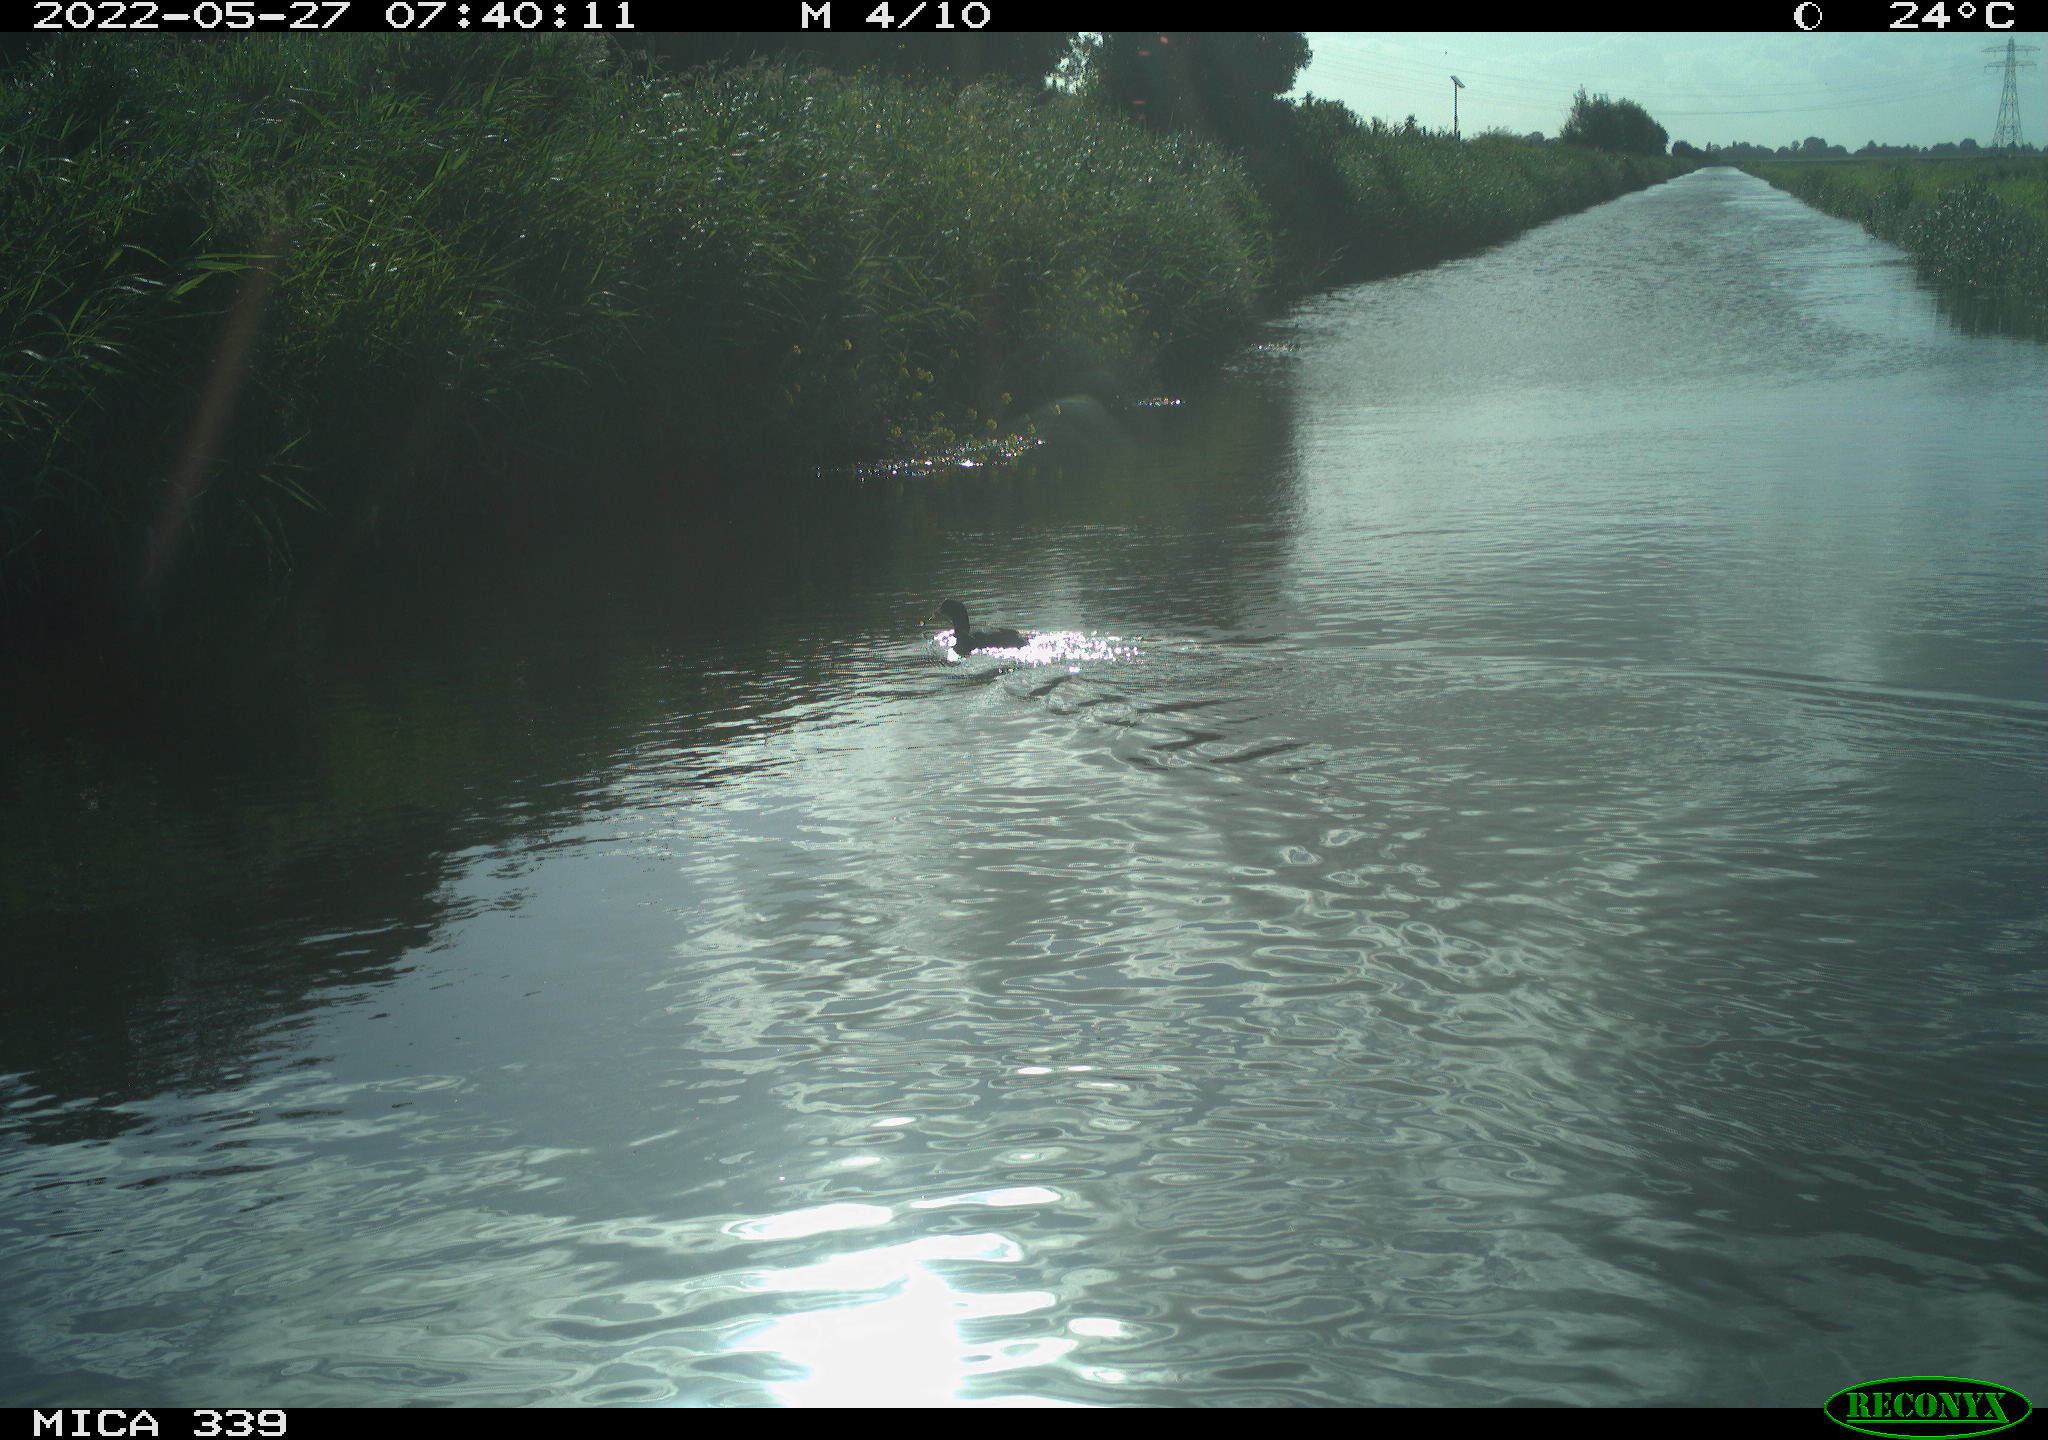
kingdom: Animalia
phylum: Chordata
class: Aves
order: Gruiformes
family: Rallidae
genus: Fulica
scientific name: Fulica atra
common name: Eurasian coot
